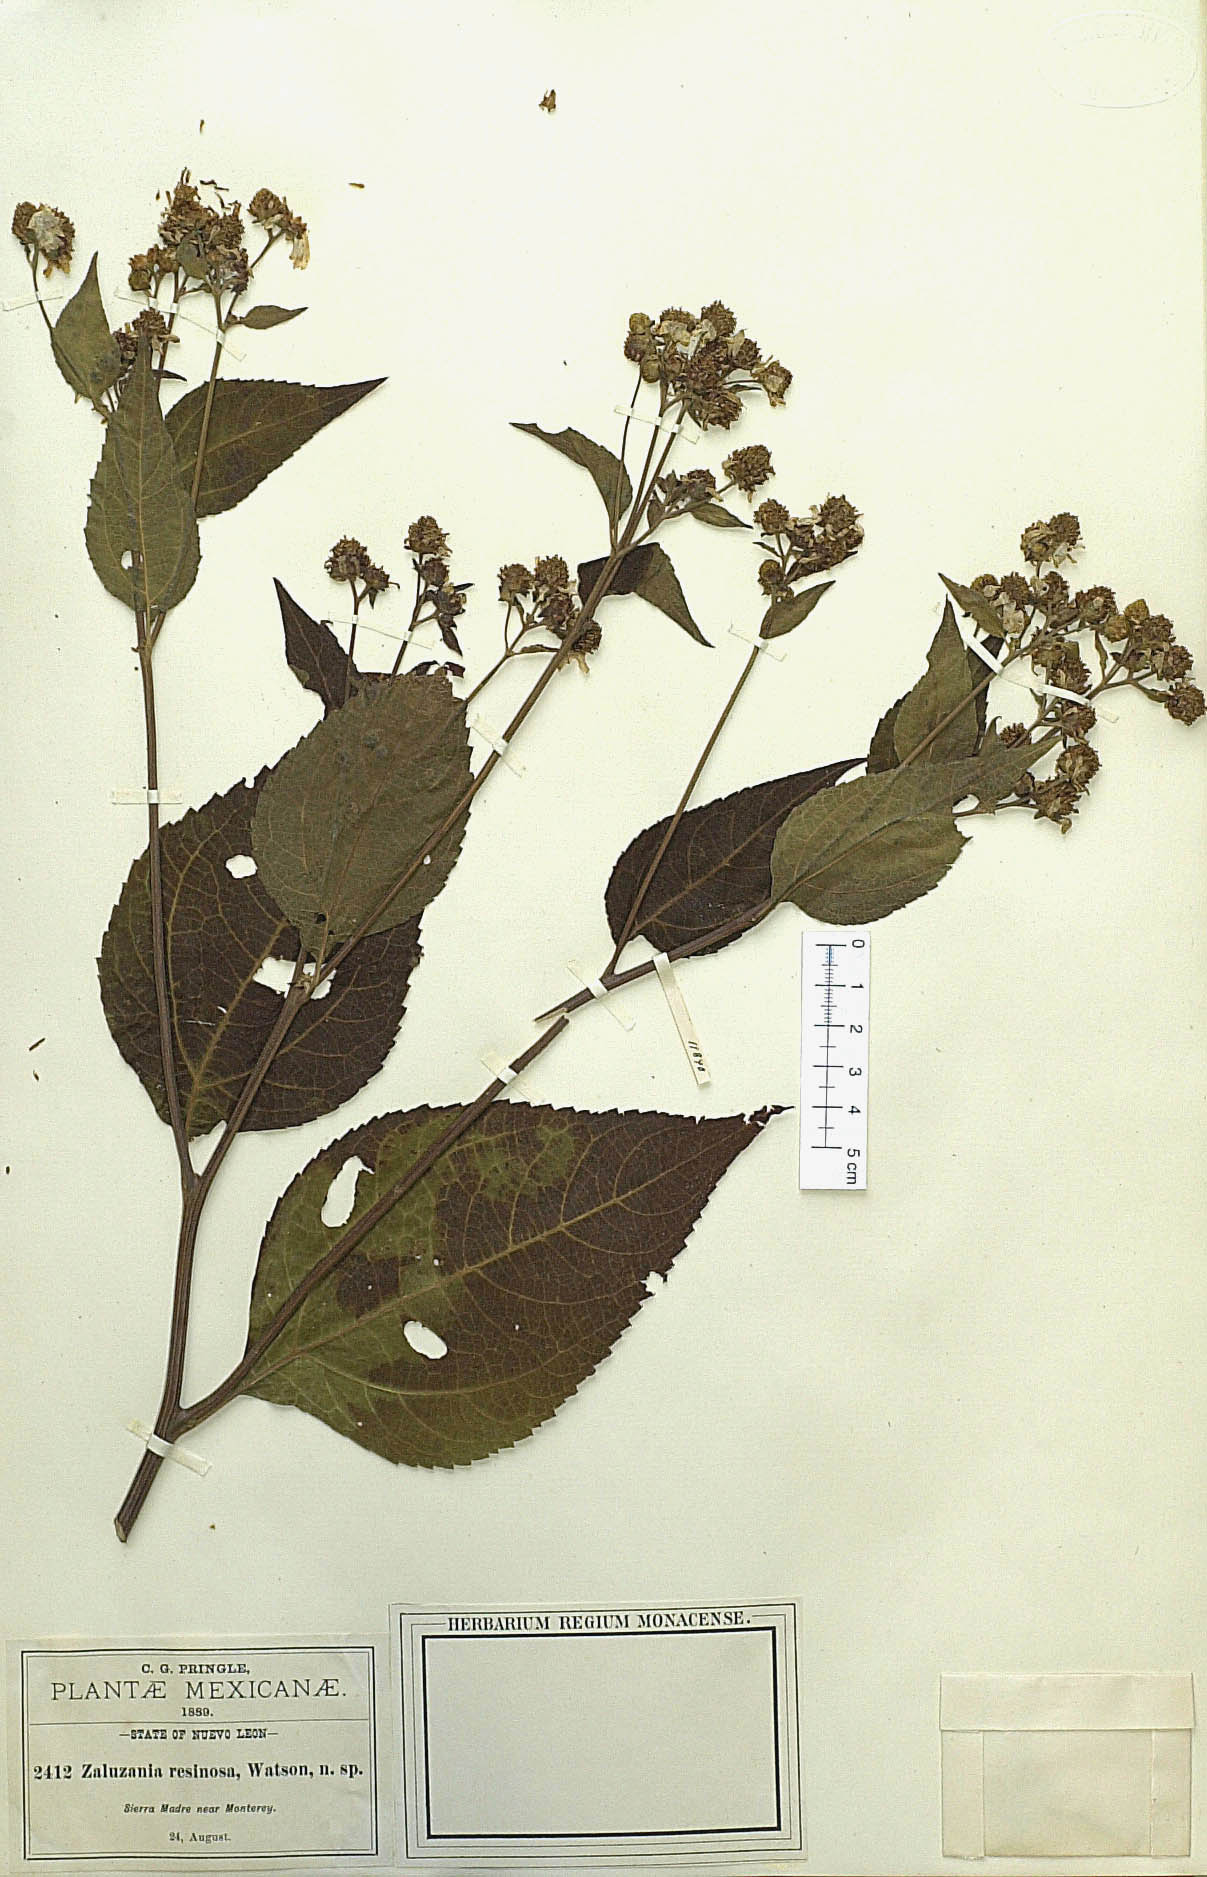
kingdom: Plantae
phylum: Tracheophyta
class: Magnoliopsida
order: Asterales
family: Asteraceae
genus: Greenmaniella
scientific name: Greenmaniella resinosa
